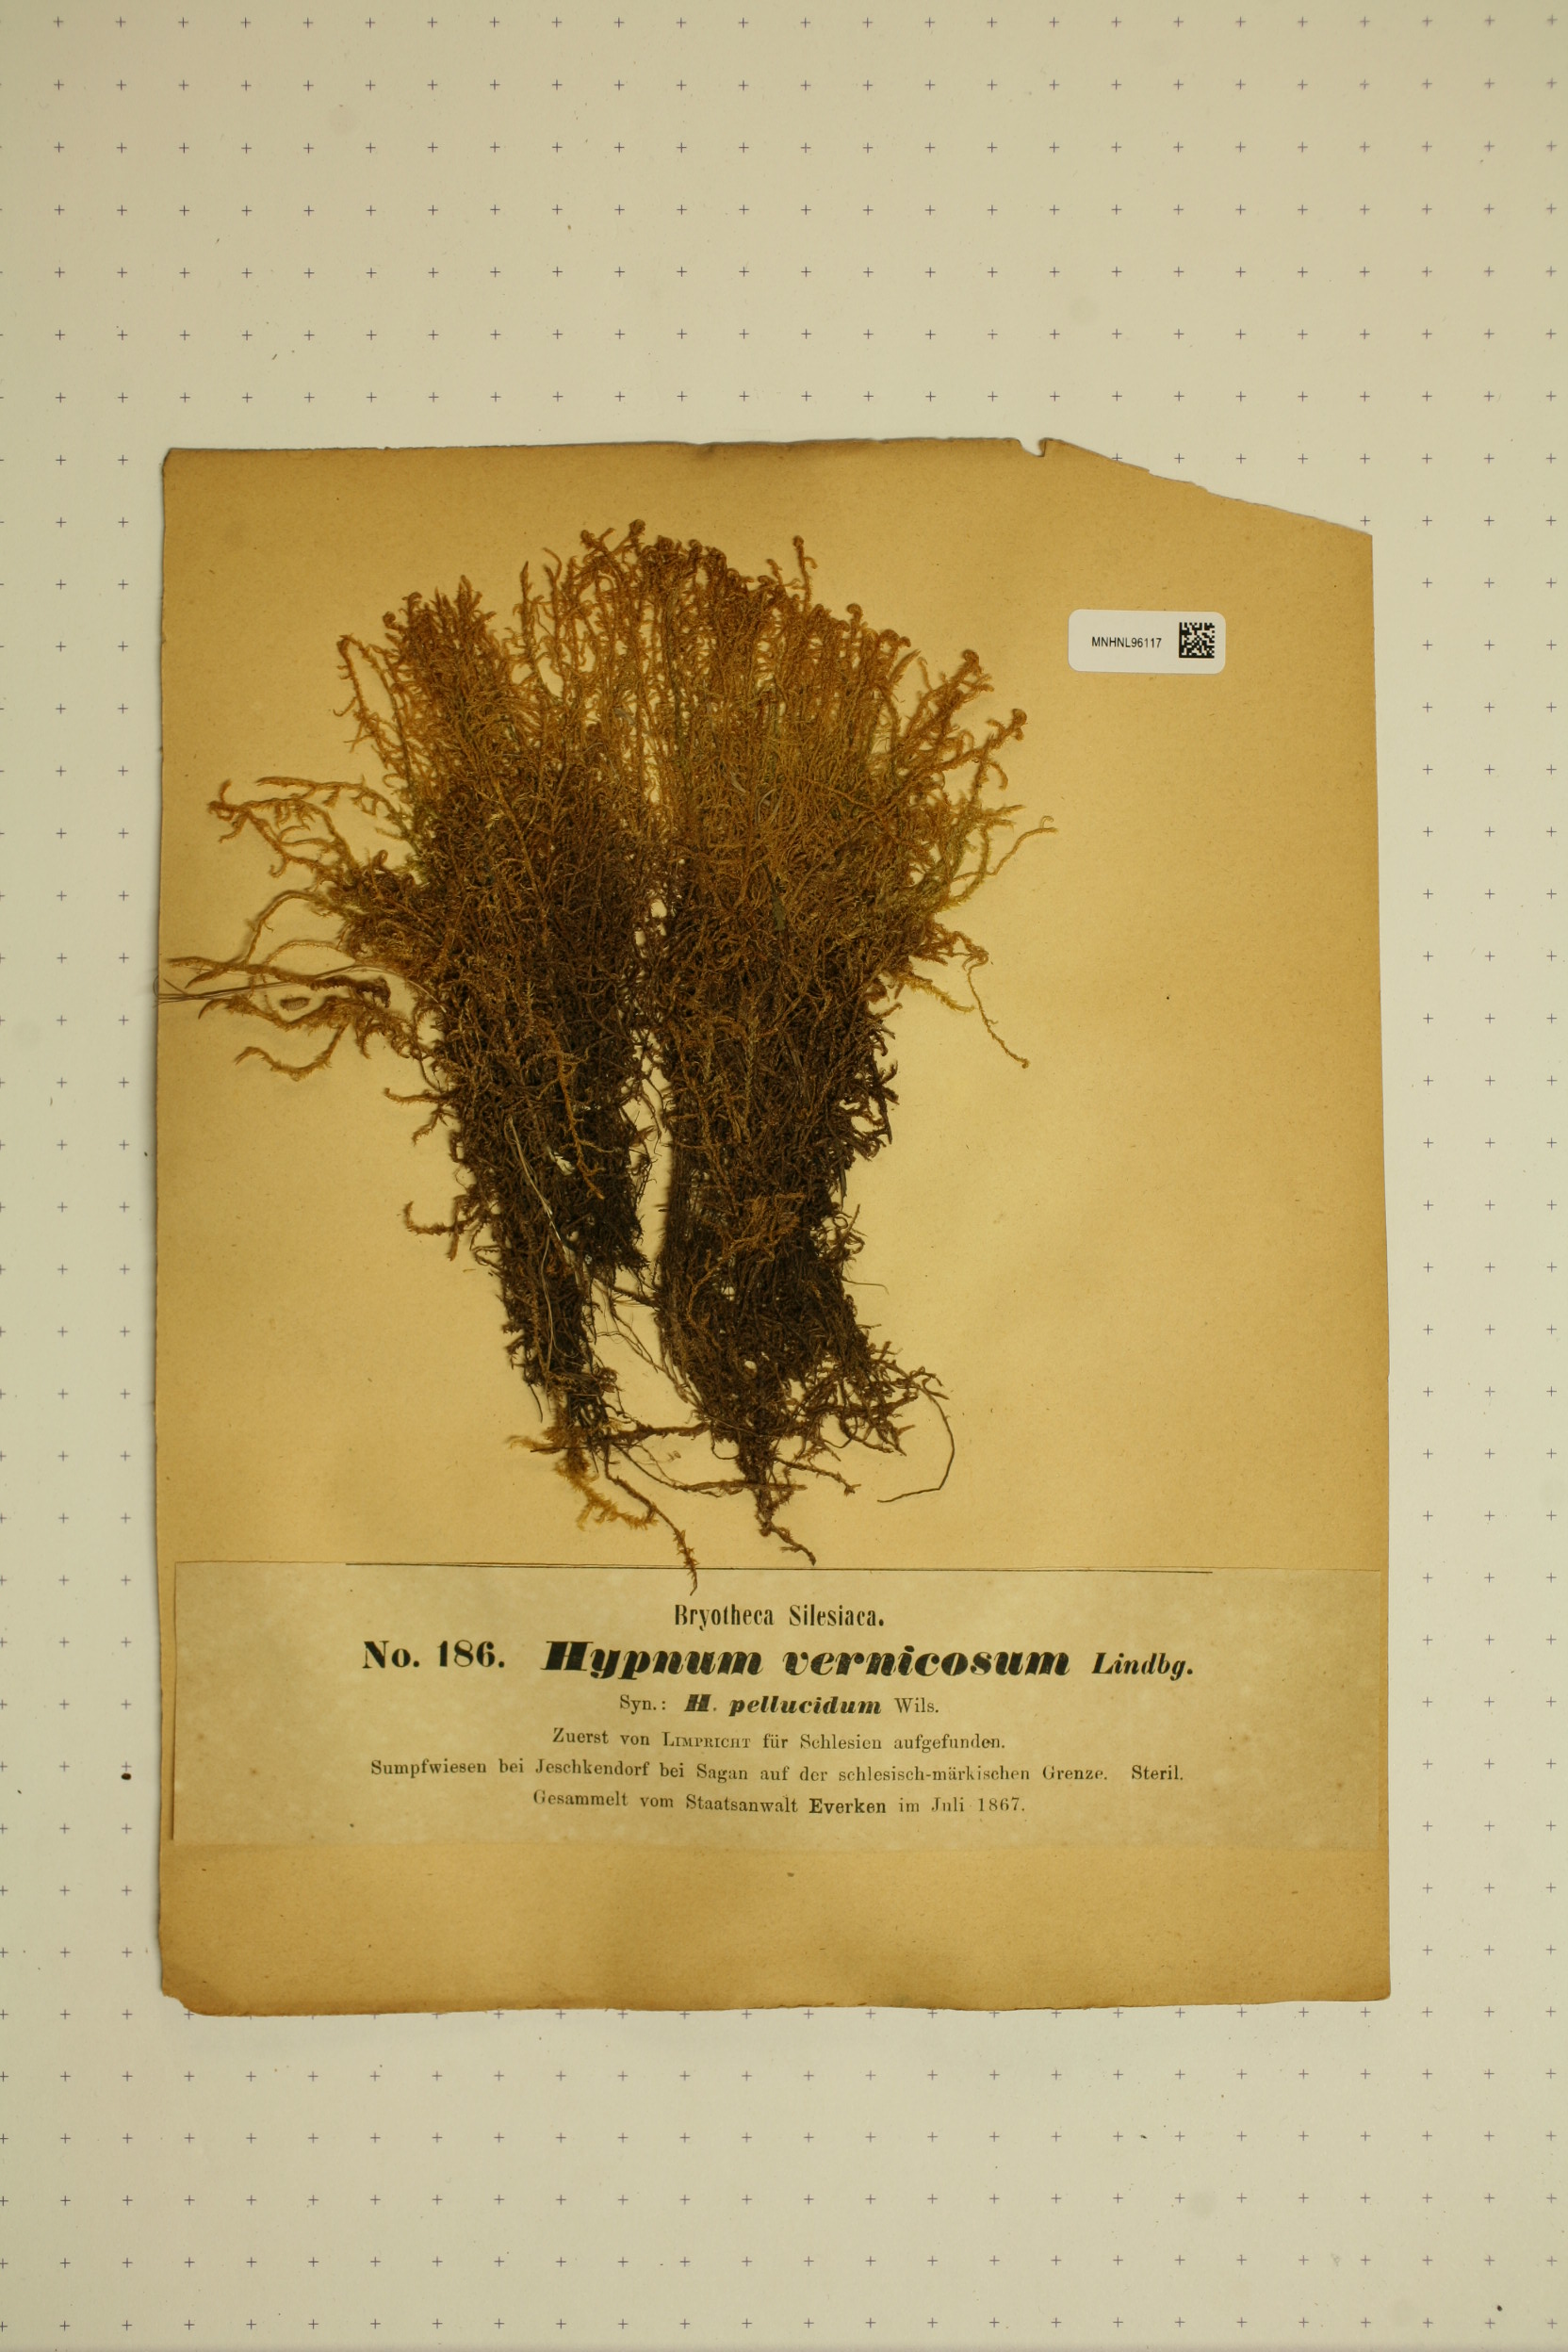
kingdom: Plantae
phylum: Bryophyta
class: Bryopsida
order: Hypnales
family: Scorpidiaceae
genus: Hamatocaulis
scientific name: Hamatocaulis vernicosus
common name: Varnished hook moss
